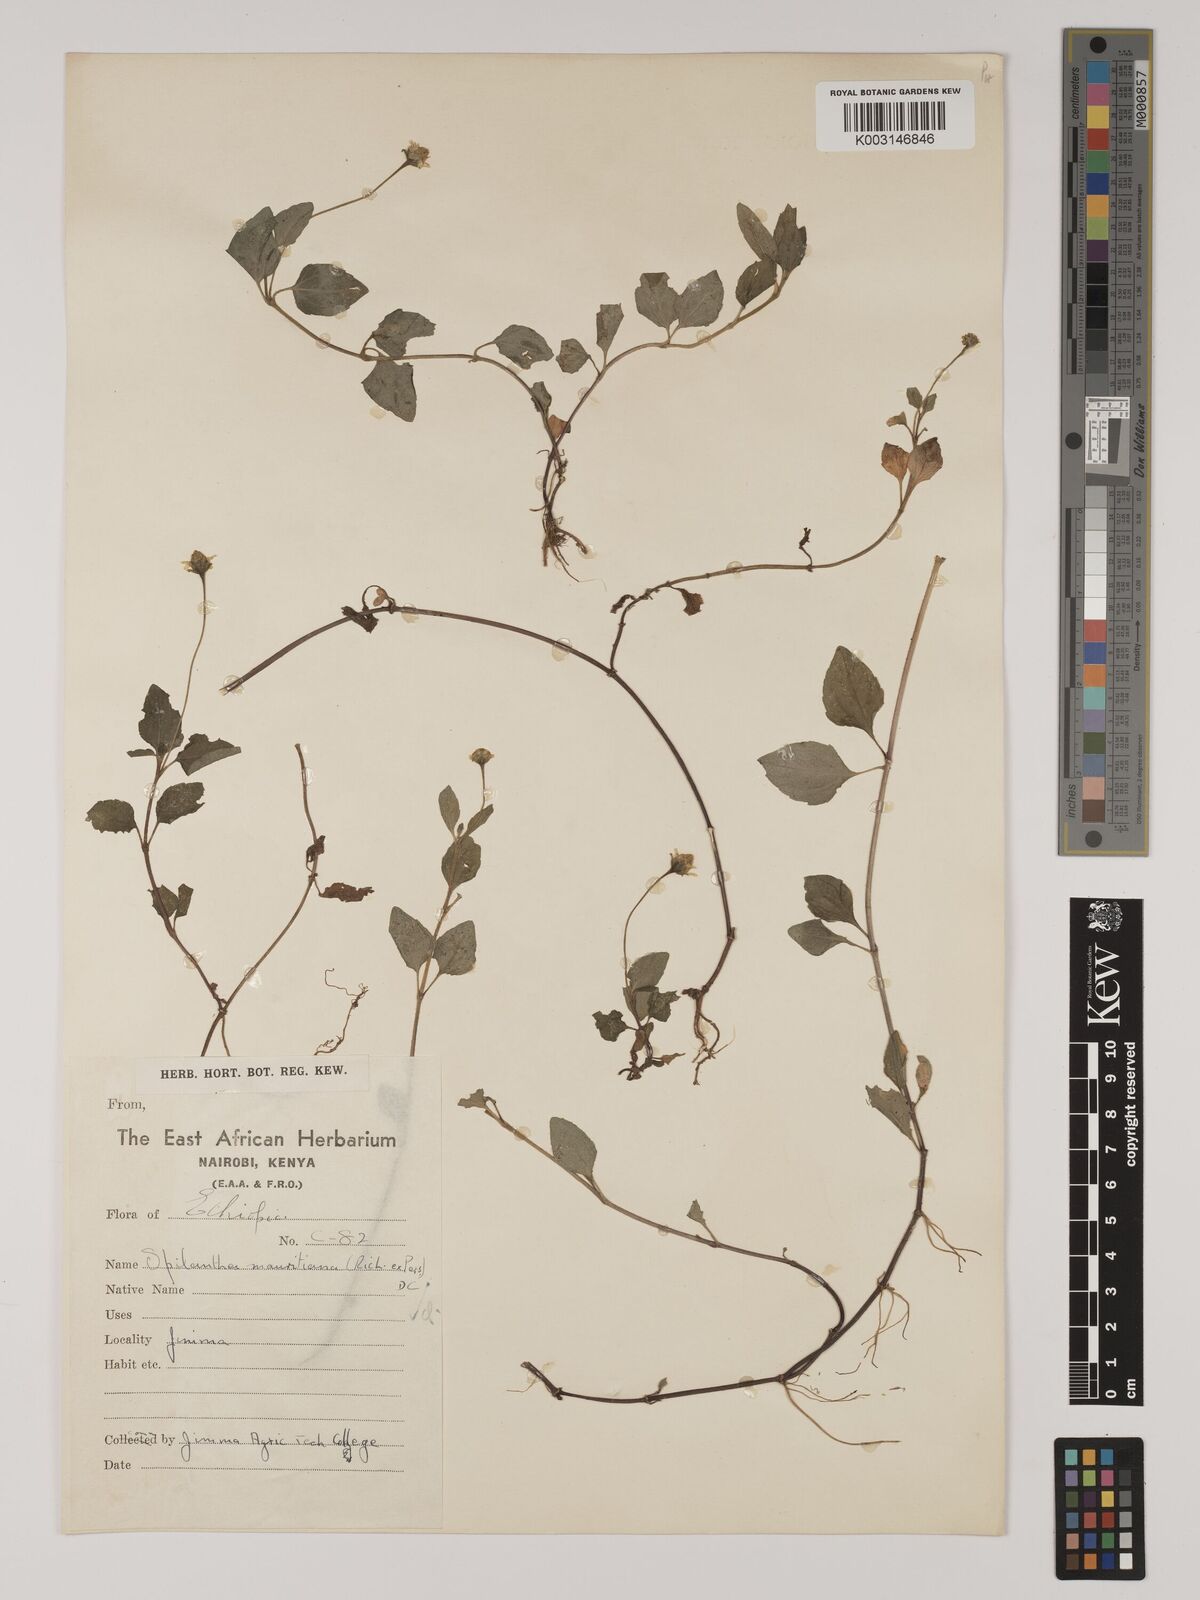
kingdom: Plantae
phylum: Tracheophyta
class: Magnoliopsida
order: Asterales
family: Asteraceae
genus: Acmella
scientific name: Acmella caulirhiza
